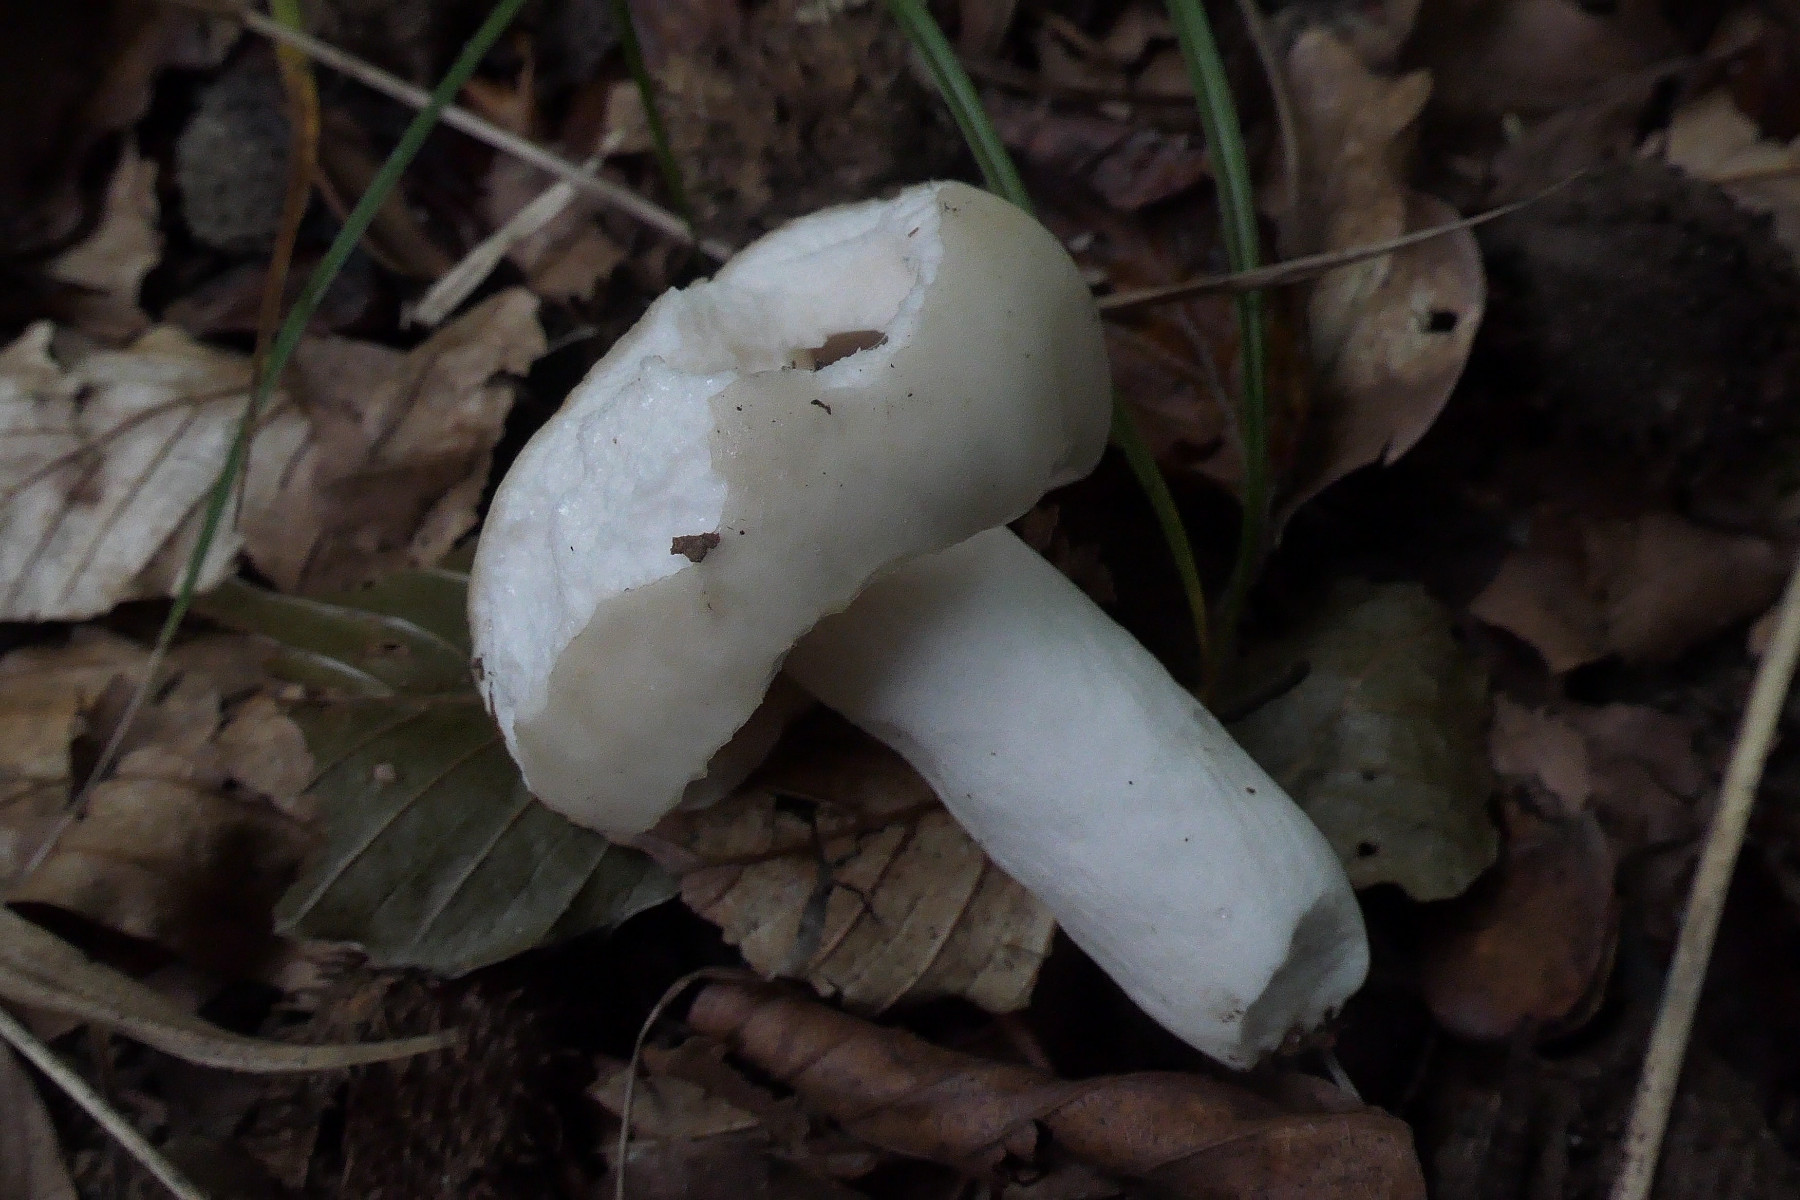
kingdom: Fungi
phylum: Basidiomycota
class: Agaricomycetes
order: Russulales
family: Russulaceae
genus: Russula
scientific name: Russula faustiana
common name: olivengrå skørhat
